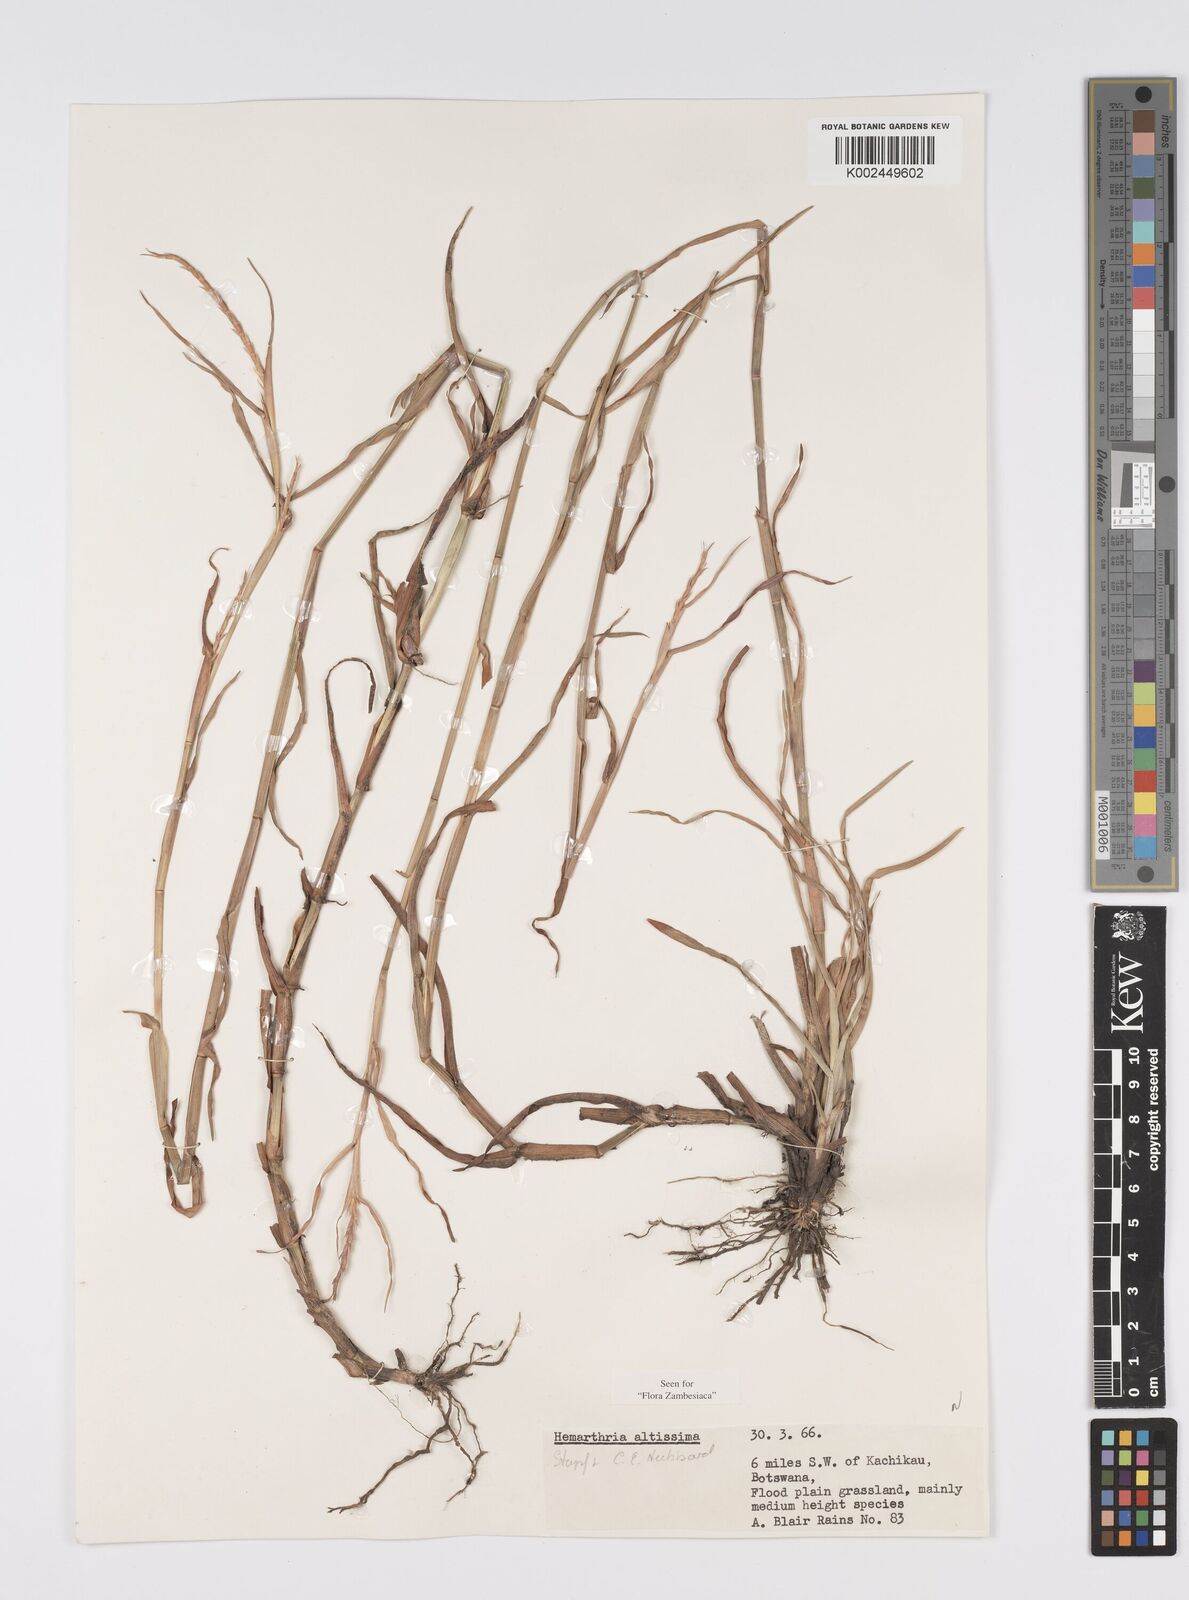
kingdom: Plantae
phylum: Tracheophyta
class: Liliopsida
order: Poales
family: Poaceae
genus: Hemarthria
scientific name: Hemarthria altissima
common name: African jointgrass
